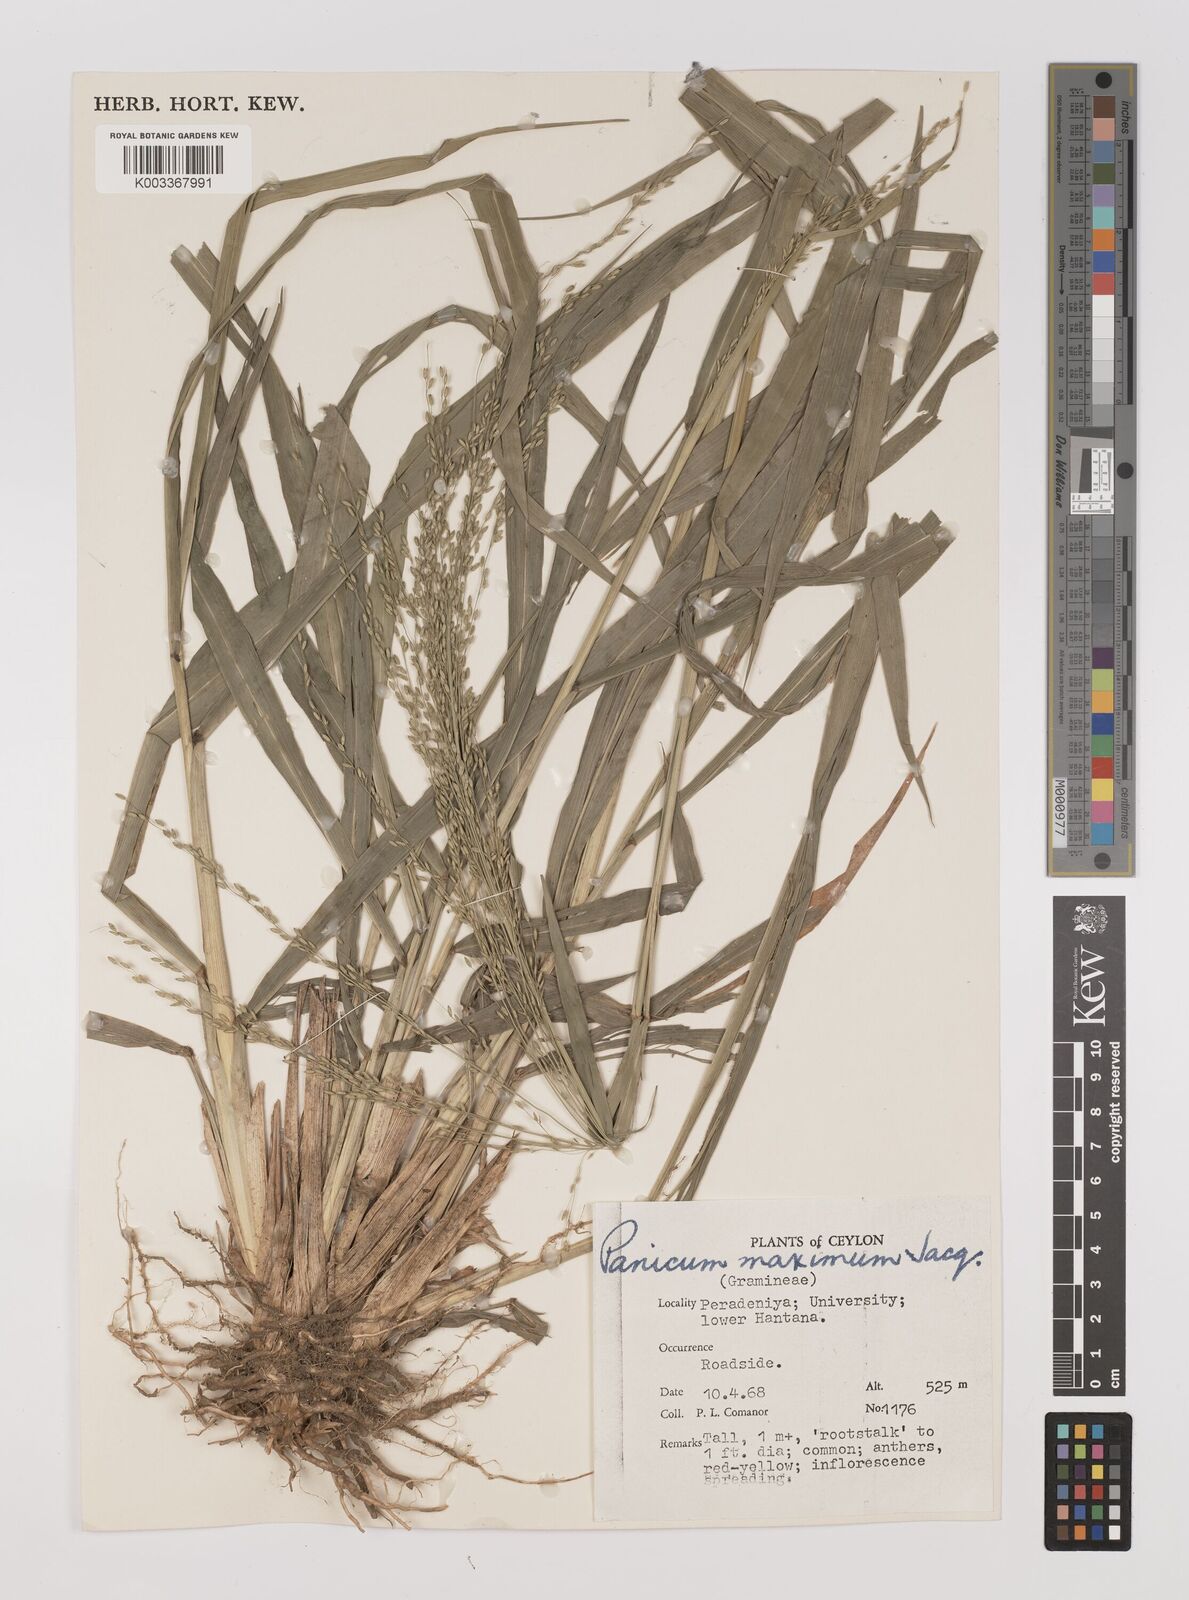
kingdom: Plantae
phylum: Tracheophyta
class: Liliopsida
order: Poales
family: Poaceae
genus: Megathyrsus
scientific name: Megathyrsus maximus
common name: Guineagrass
